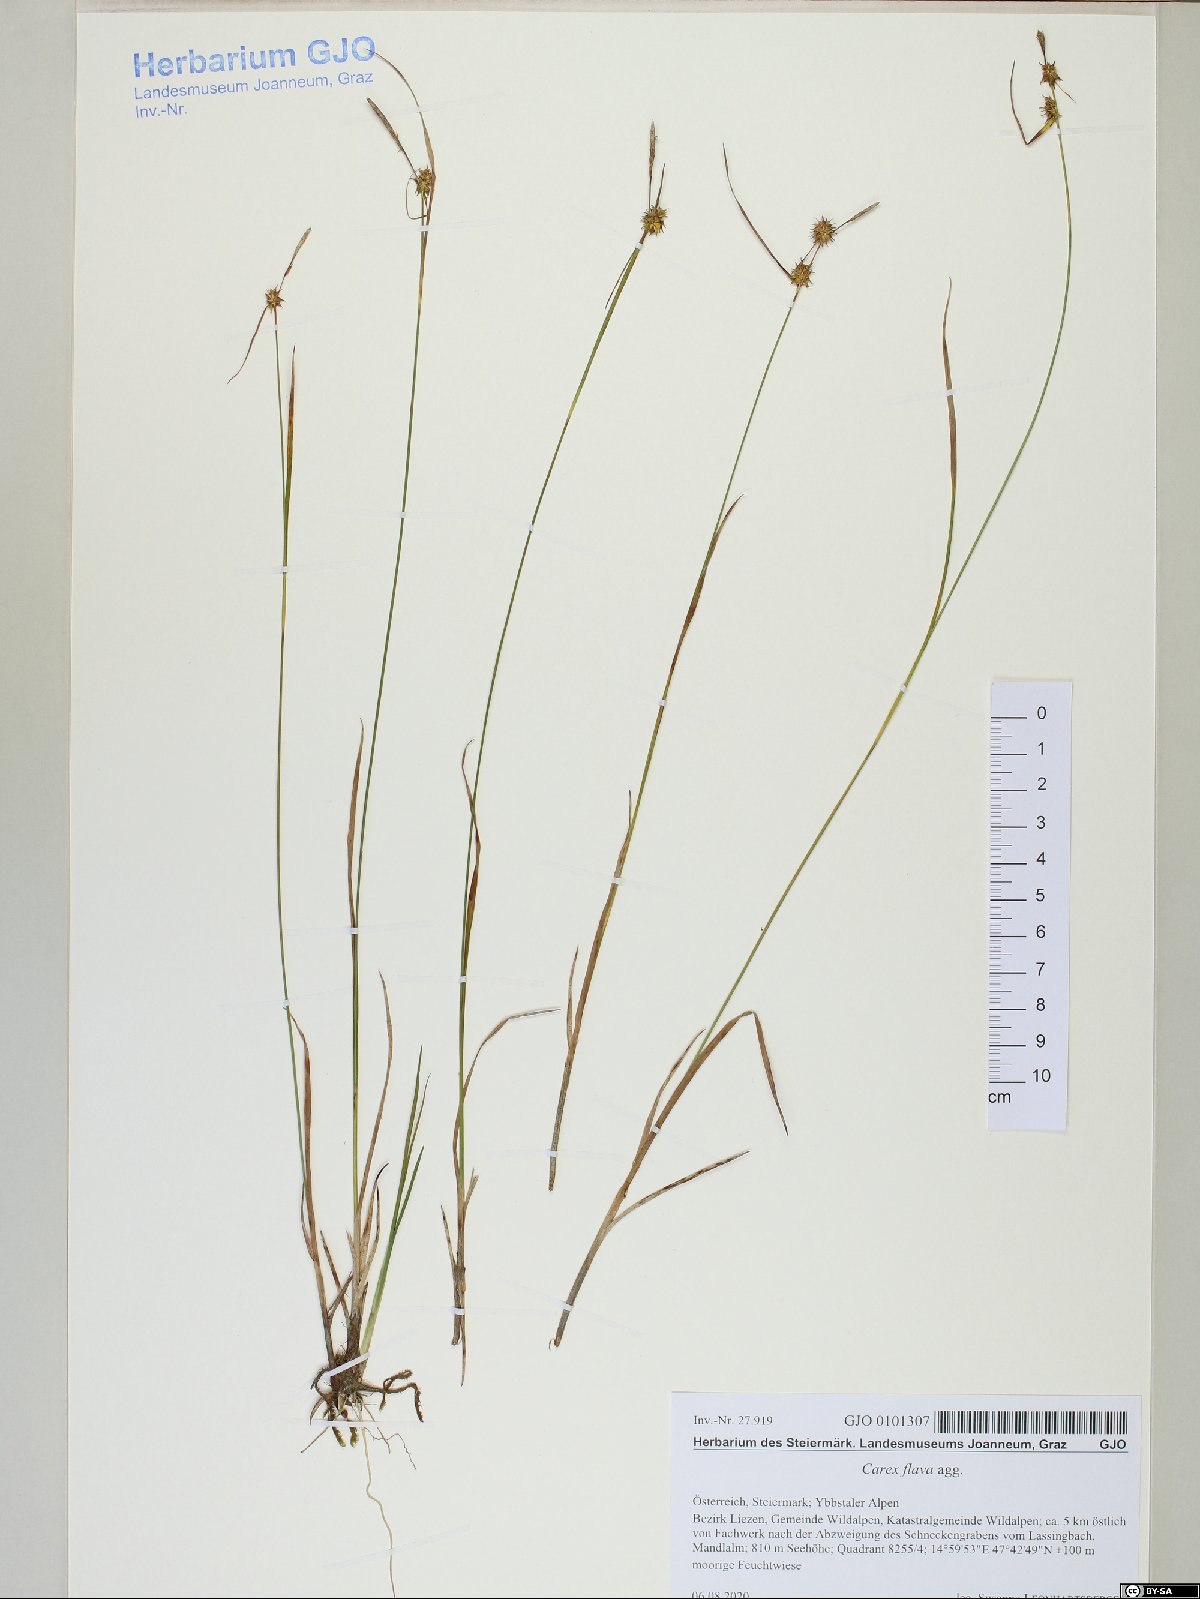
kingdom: Plantae
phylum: Tracheophyta
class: Liliopsida
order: Poales
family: Cyperaceae
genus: Carex
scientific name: Carex flava
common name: Large yellow-sedge
